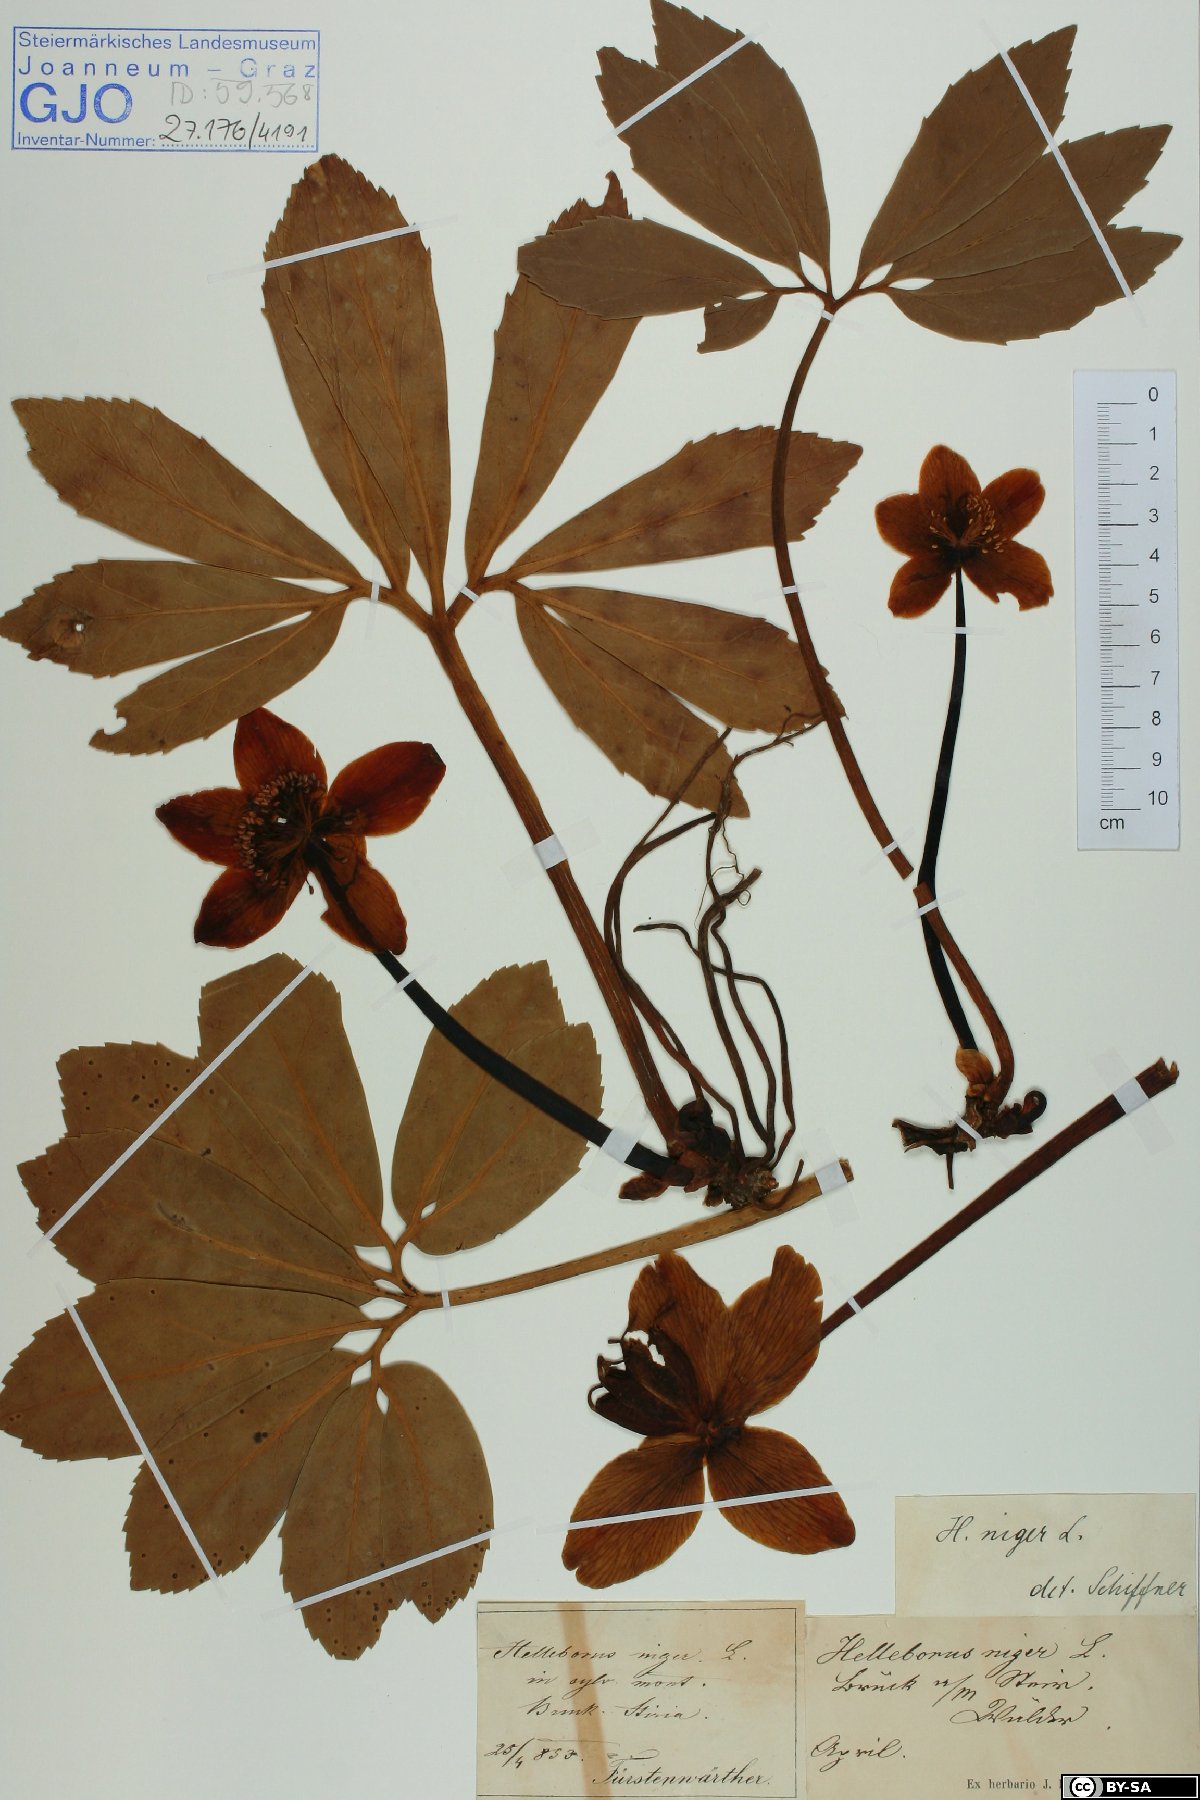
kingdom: Plantae
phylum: Tracheophyta
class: Magnoliopsida
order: Ranunculales
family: Ranunculaceae
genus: Helleborus
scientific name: Helleborus niger
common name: Black hellebore
